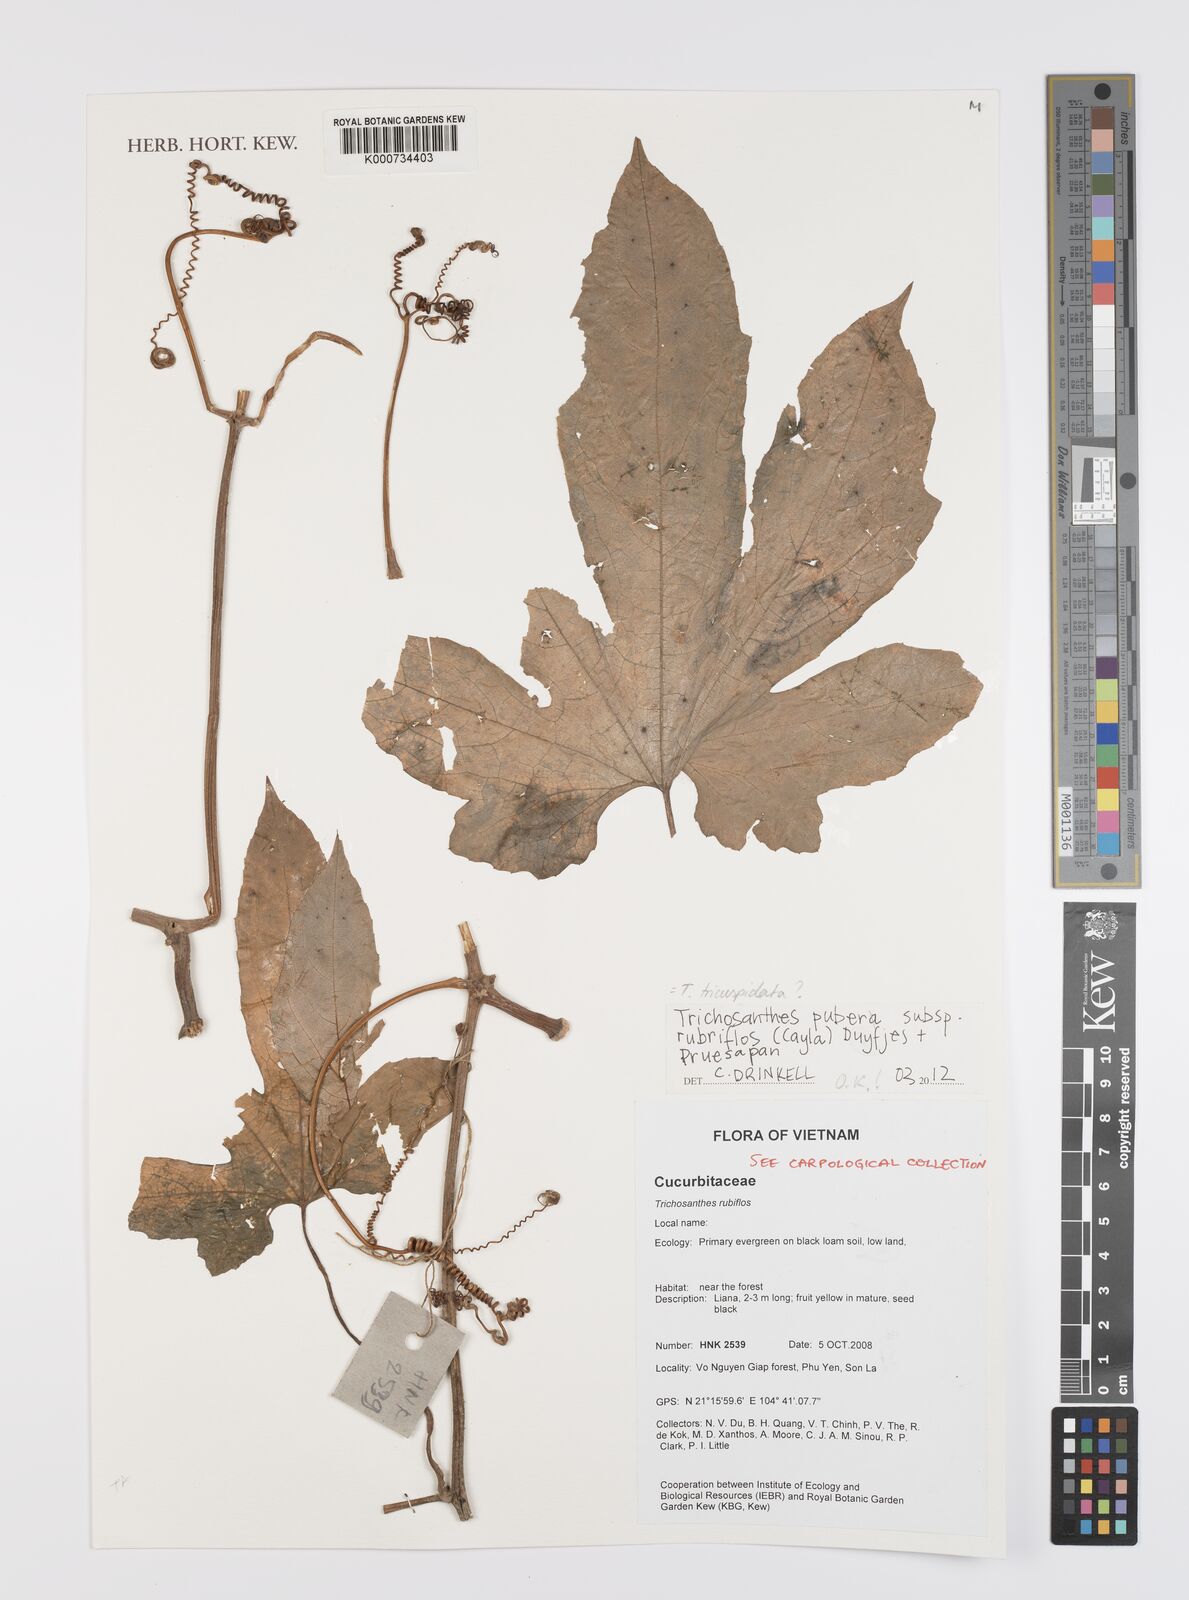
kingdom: Plantae
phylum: Tracheophyta
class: Magnoliopsida
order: Cucurbitales
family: Cucurbitaceae
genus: Trichosanthes
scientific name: Trichosanthes rubriflos
